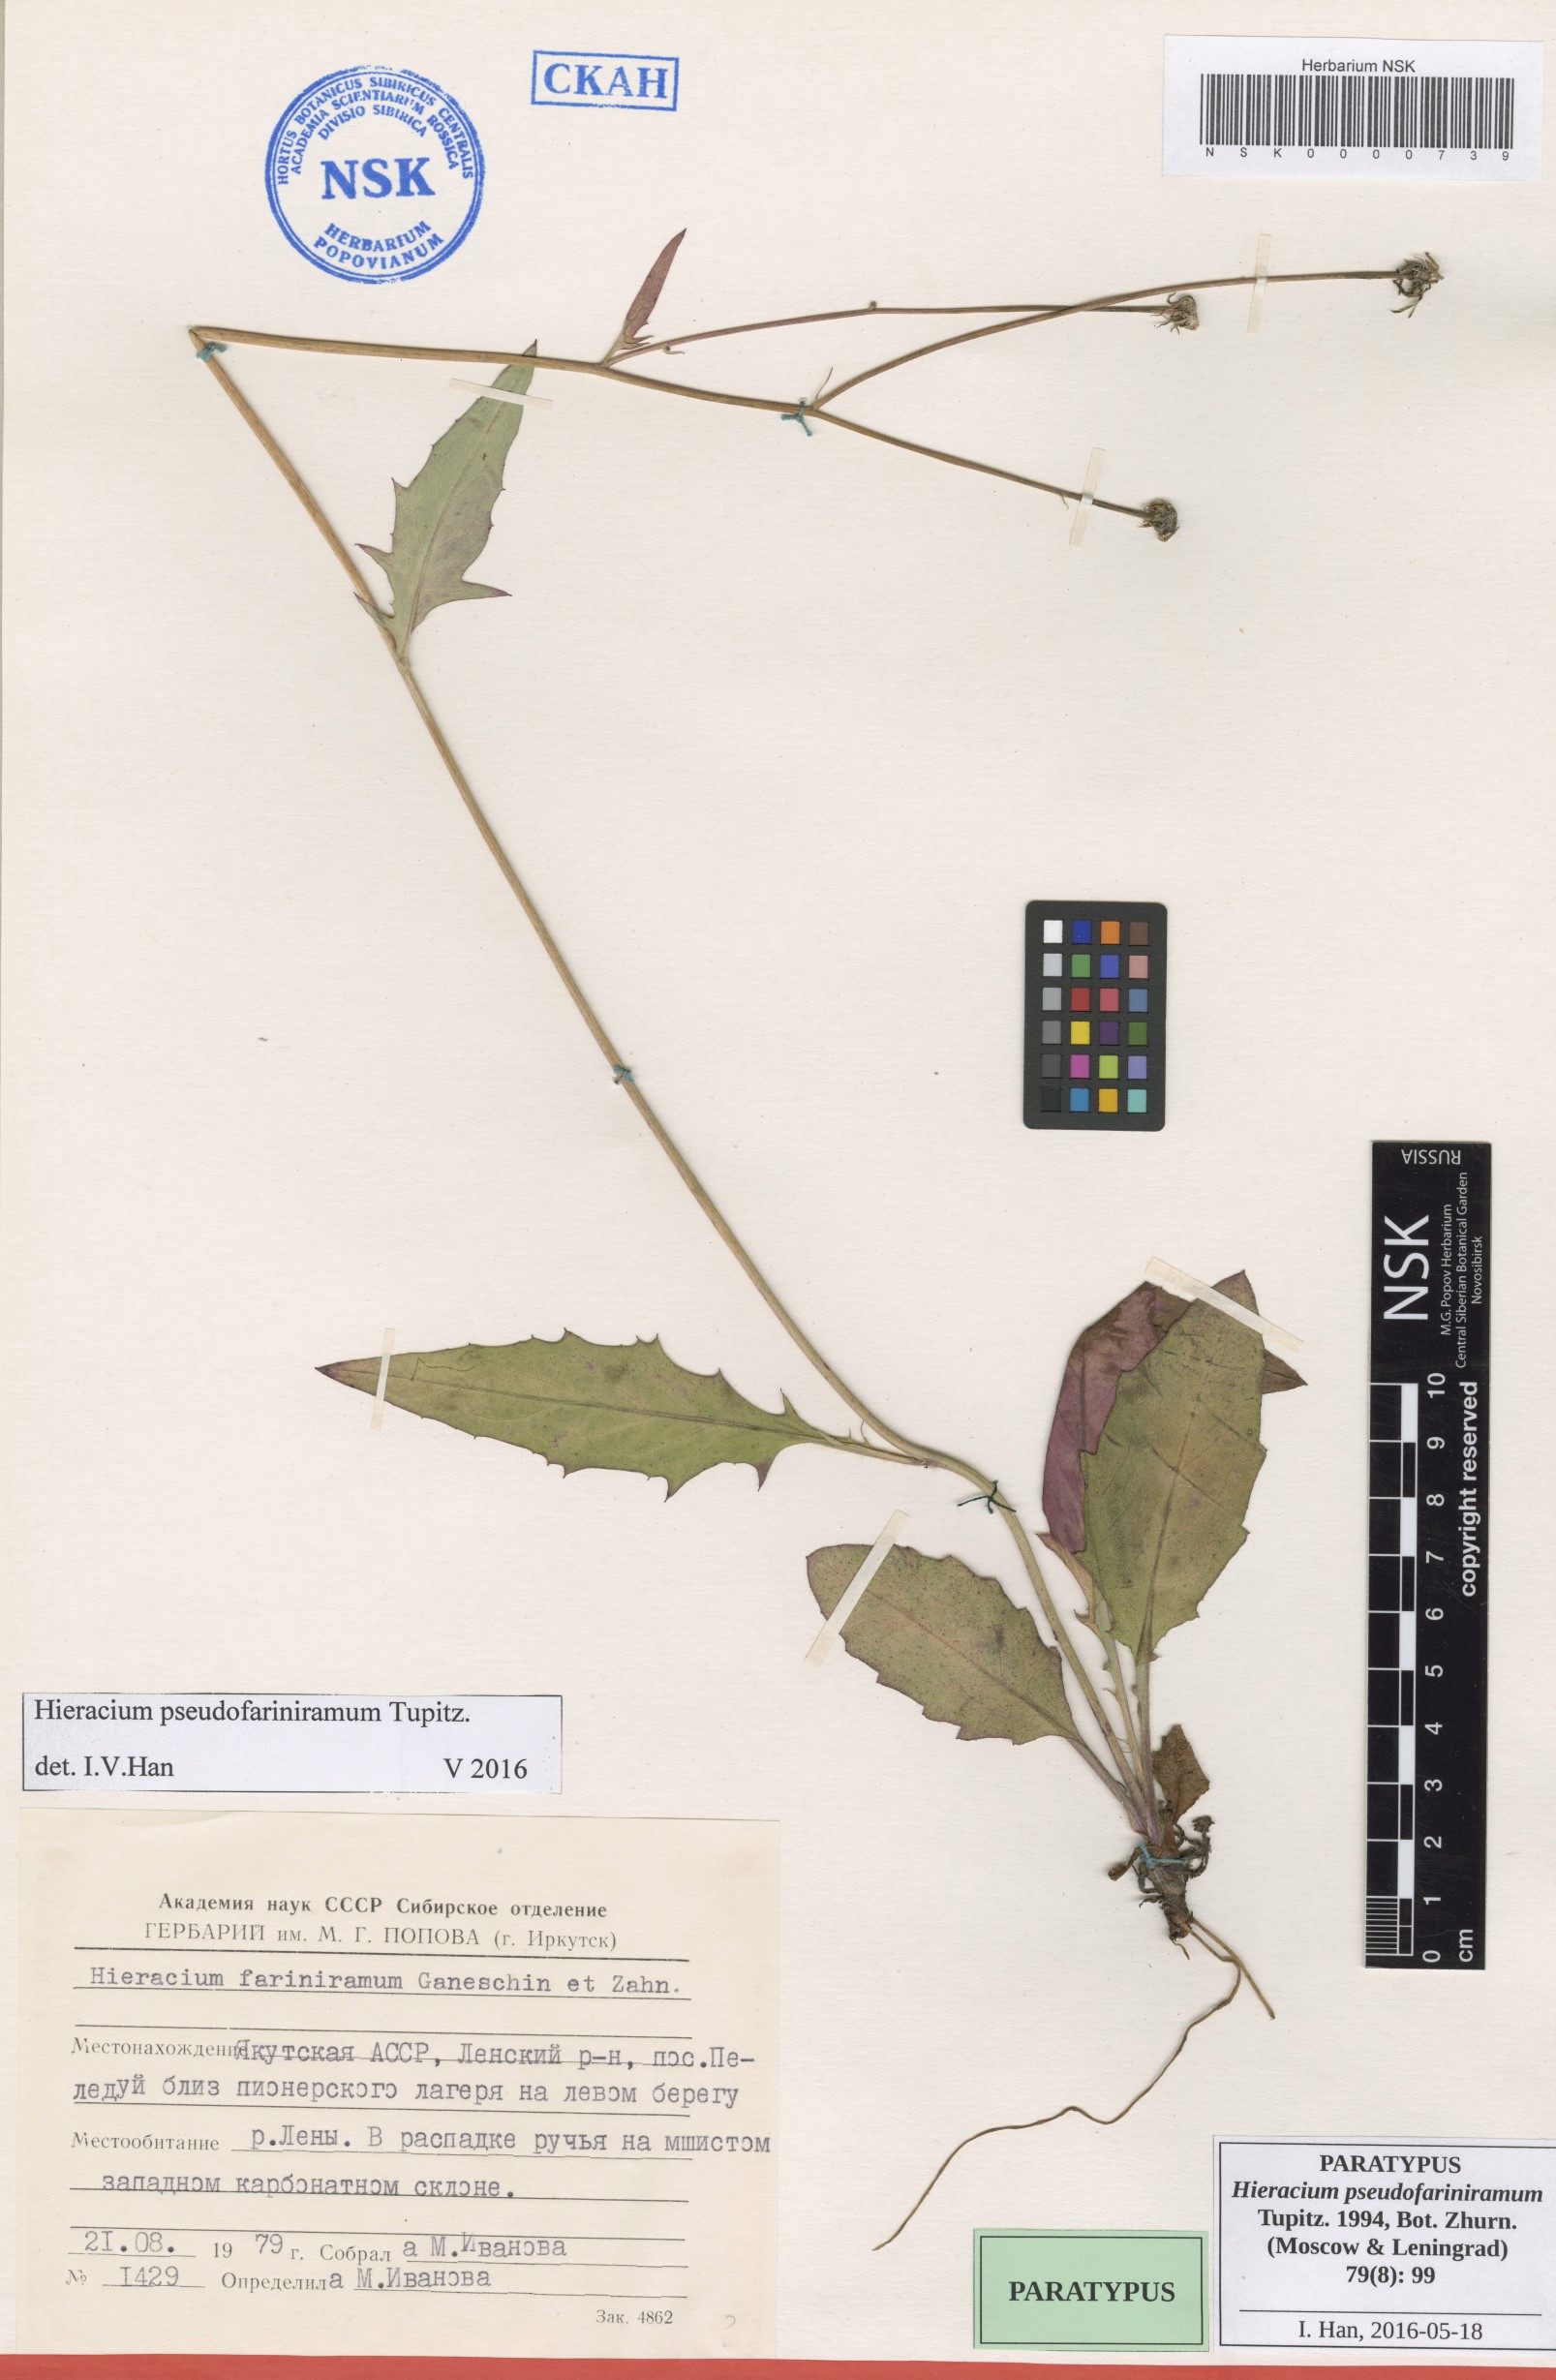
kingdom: Plantae
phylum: Tracheophyta
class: Magnoliopsida
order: Asterales
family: Asteraceae
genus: Hieracium
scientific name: Hieracium pseudofariniramum
